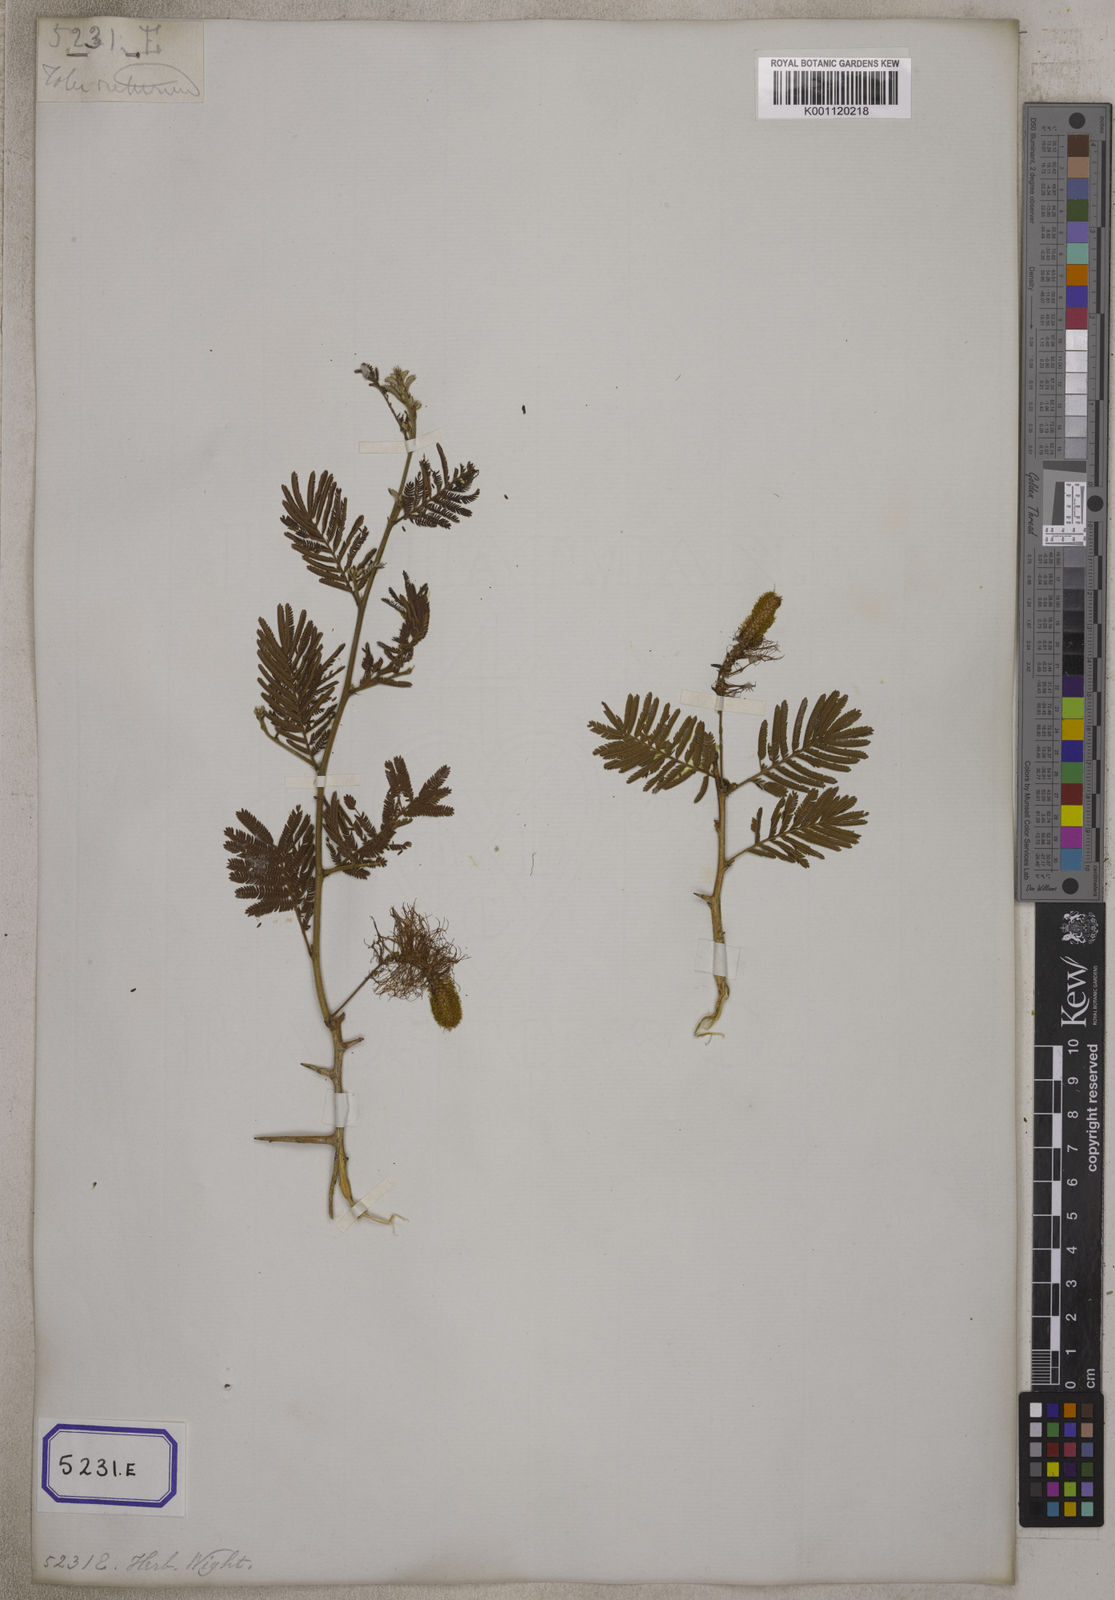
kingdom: Plantae
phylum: Tracheophyta
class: Magnoliopsida
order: Fabales
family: Fabaceae
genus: Dichrostachys
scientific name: Dichrostachys cinerea
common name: Sicklebush
